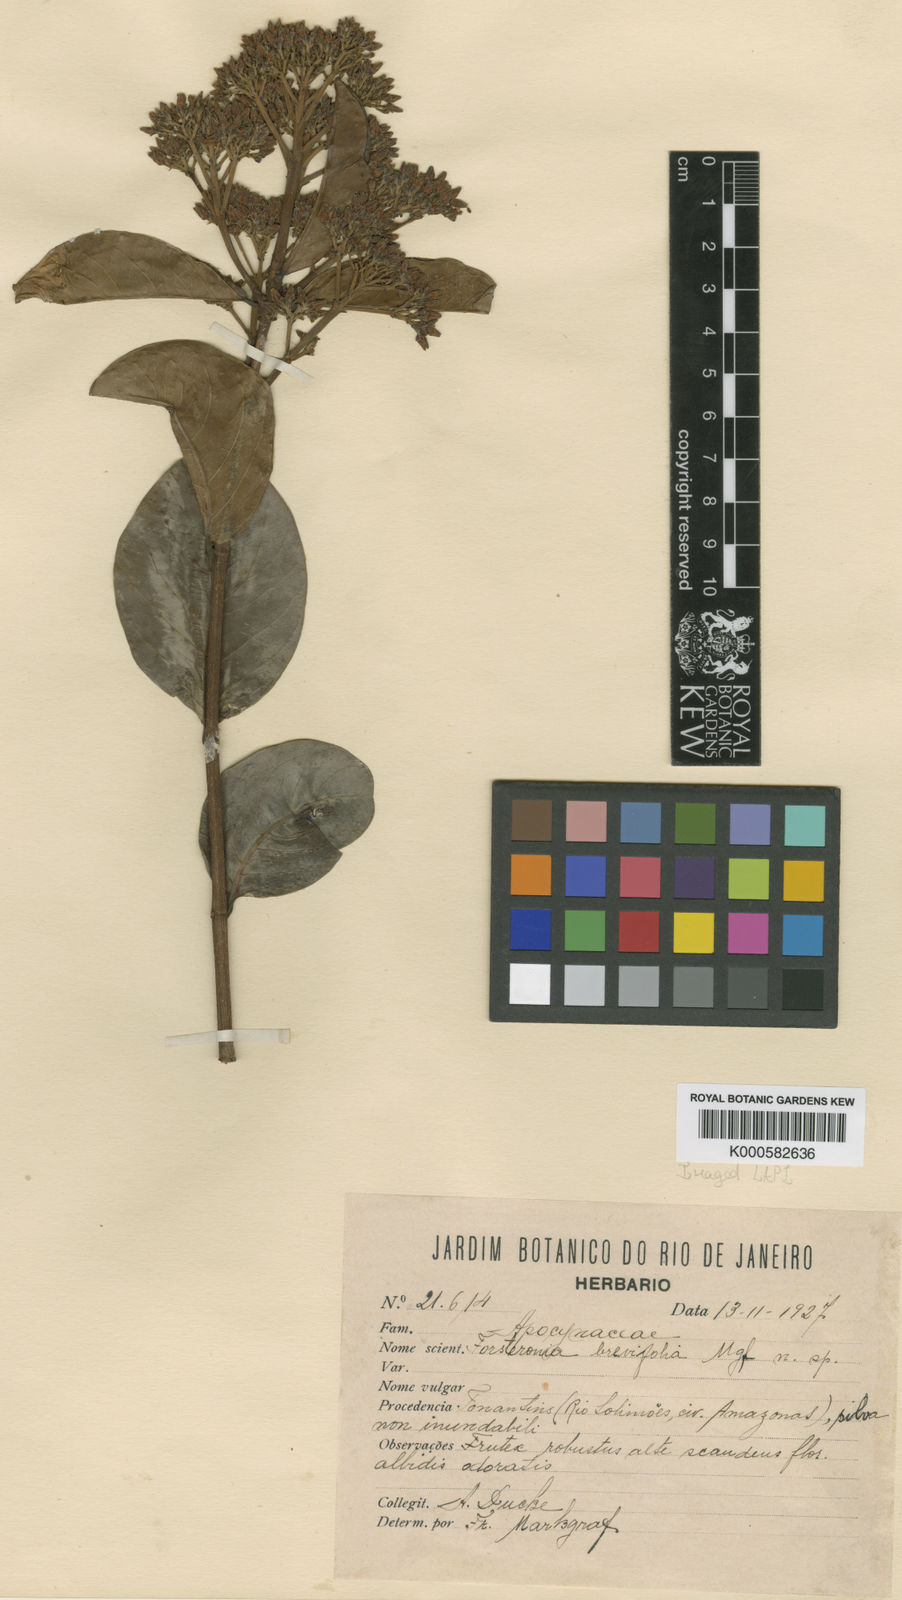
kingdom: Plantae
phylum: Tracheophyta
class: Magnoliopsida
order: Gentianales
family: Apocynaceae
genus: Forsteronia
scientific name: Forsteronia brevifolia
